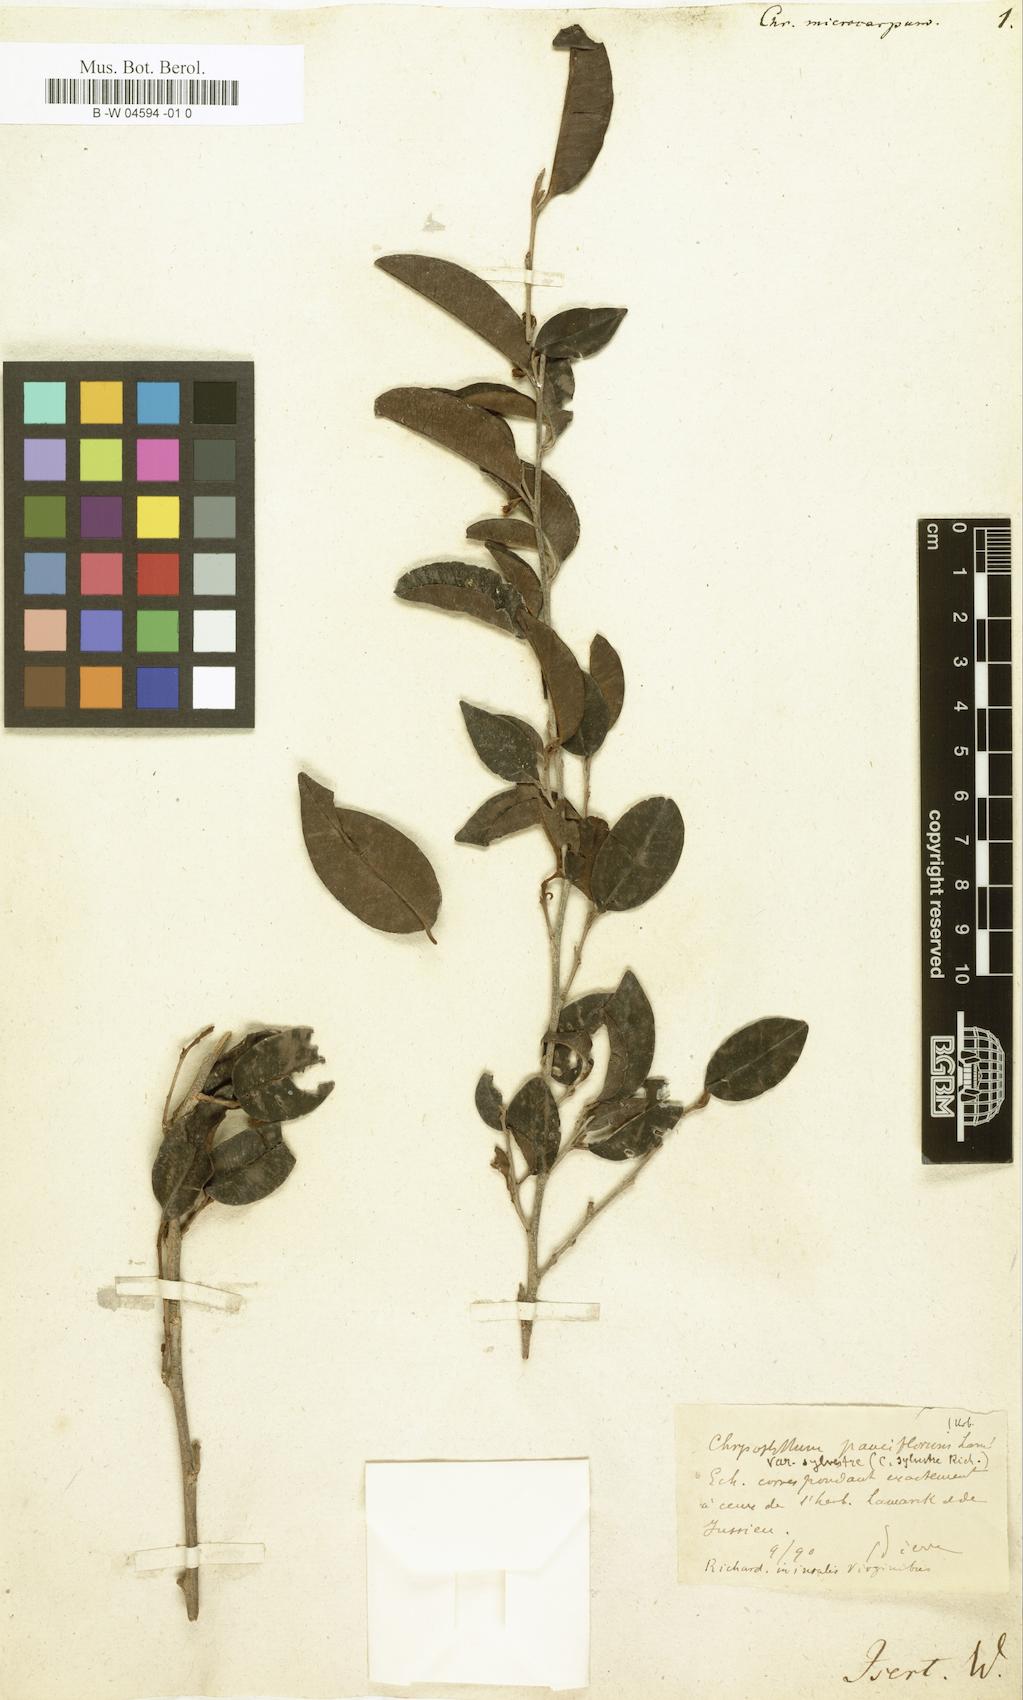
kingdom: Plantae
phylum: Tracheophyta
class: Magnoliopsida
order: Ericales
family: Sapotaceae
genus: Chrysophyllum
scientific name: Chrysophyllum argenteum
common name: Smooth star apple
